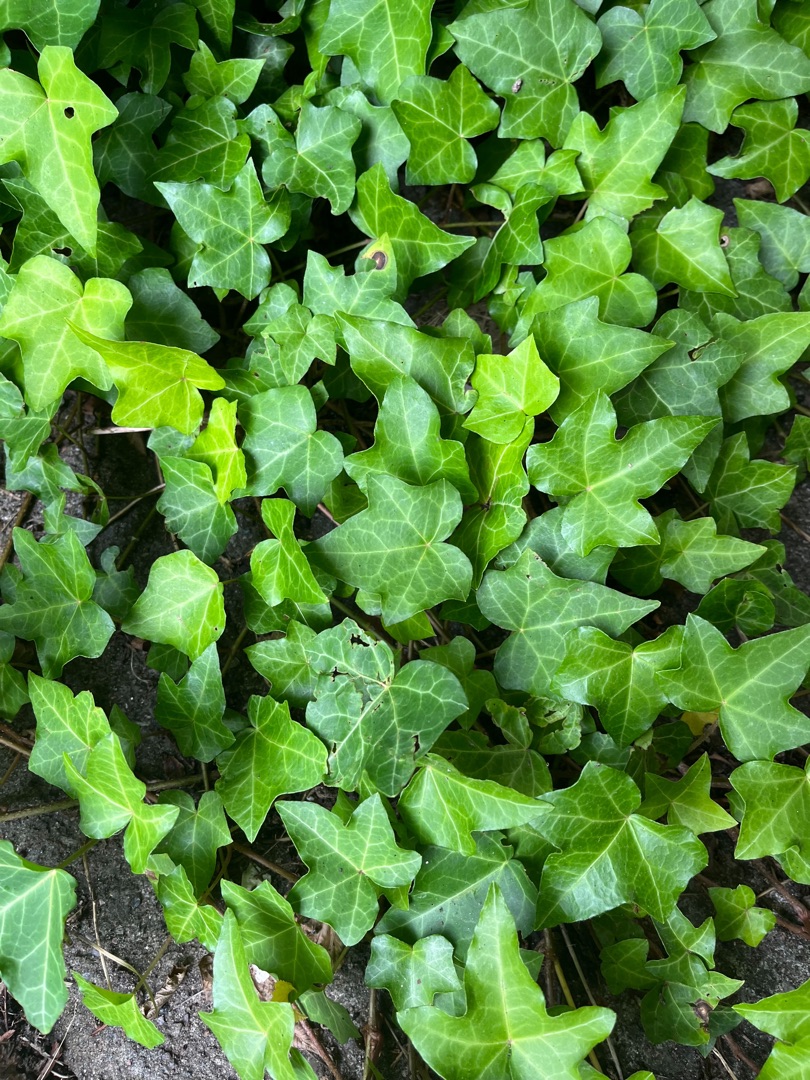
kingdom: Plantae
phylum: Tracheophyta
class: Magnoliopsida
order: Apiales
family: Araliaceae
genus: Hedera
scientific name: Hedera helix
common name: Vedbend
